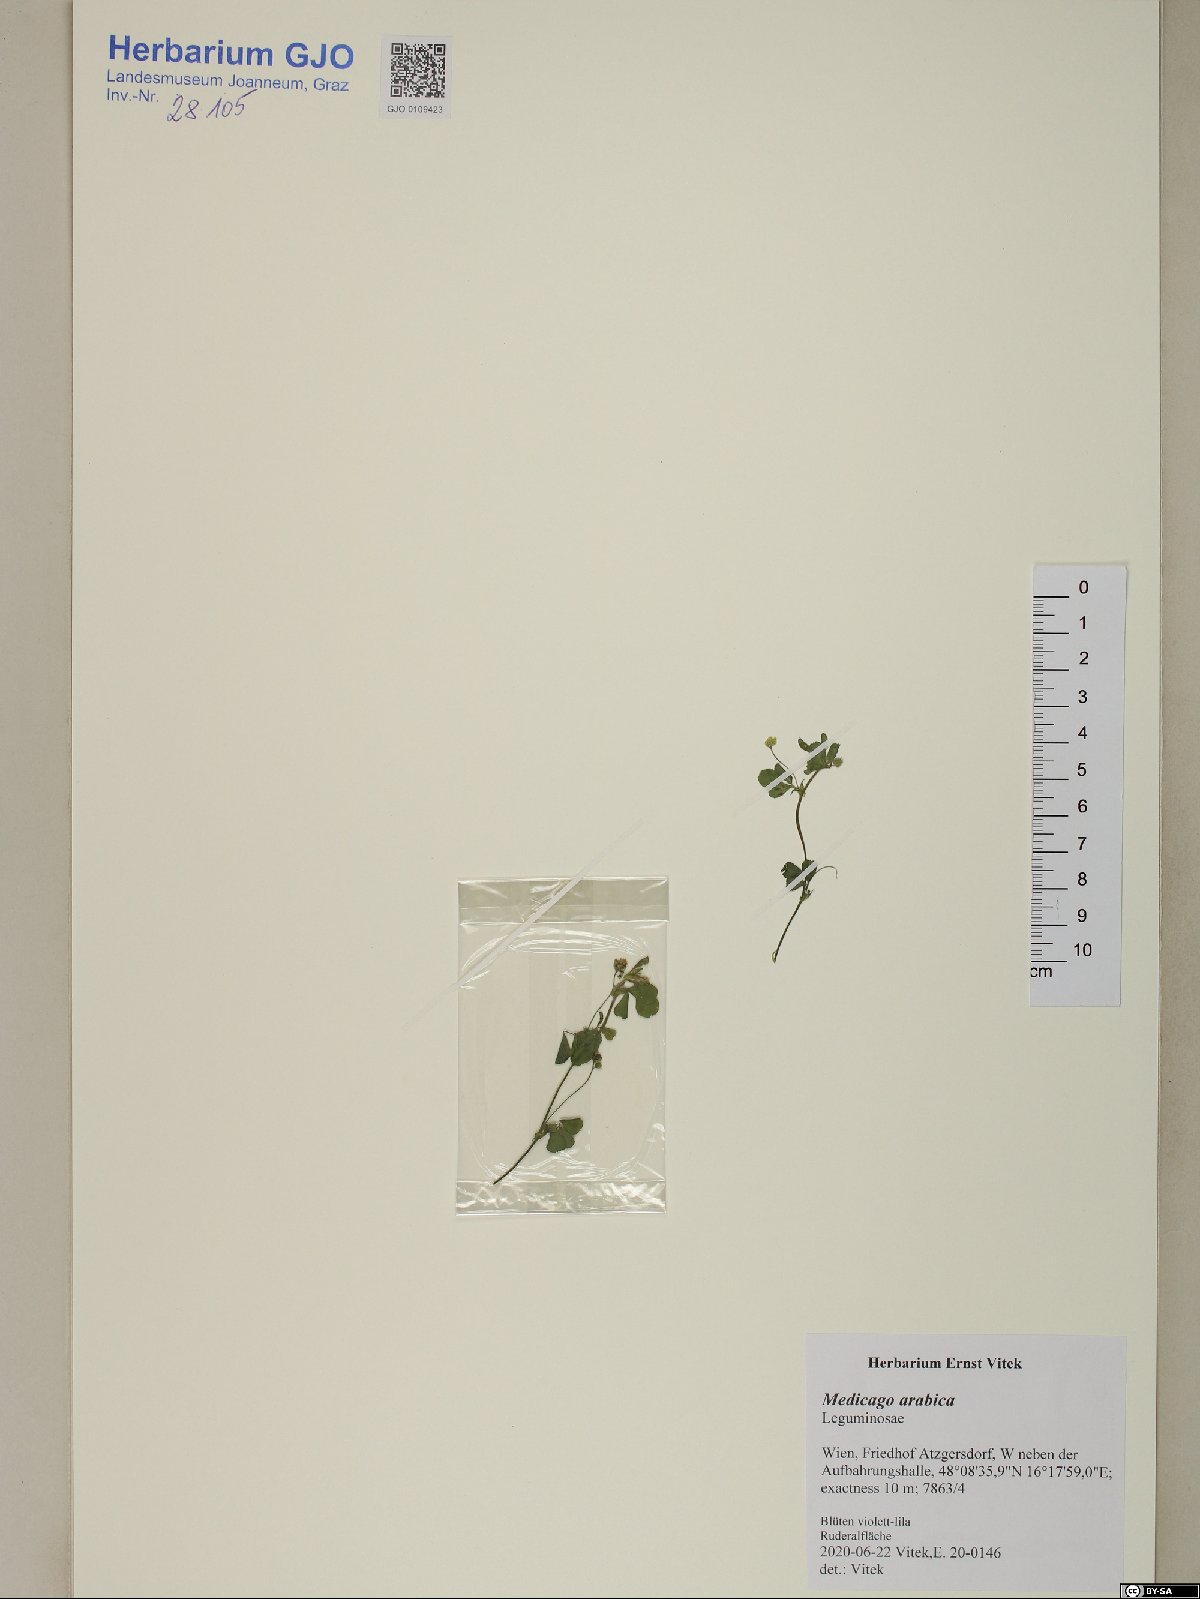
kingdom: Plantae
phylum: Tracheophyta
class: Magnoliopsida
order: Fabales
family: Fabaceae
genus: Medicago
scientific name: Medicago arabica
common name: Spotted medick
